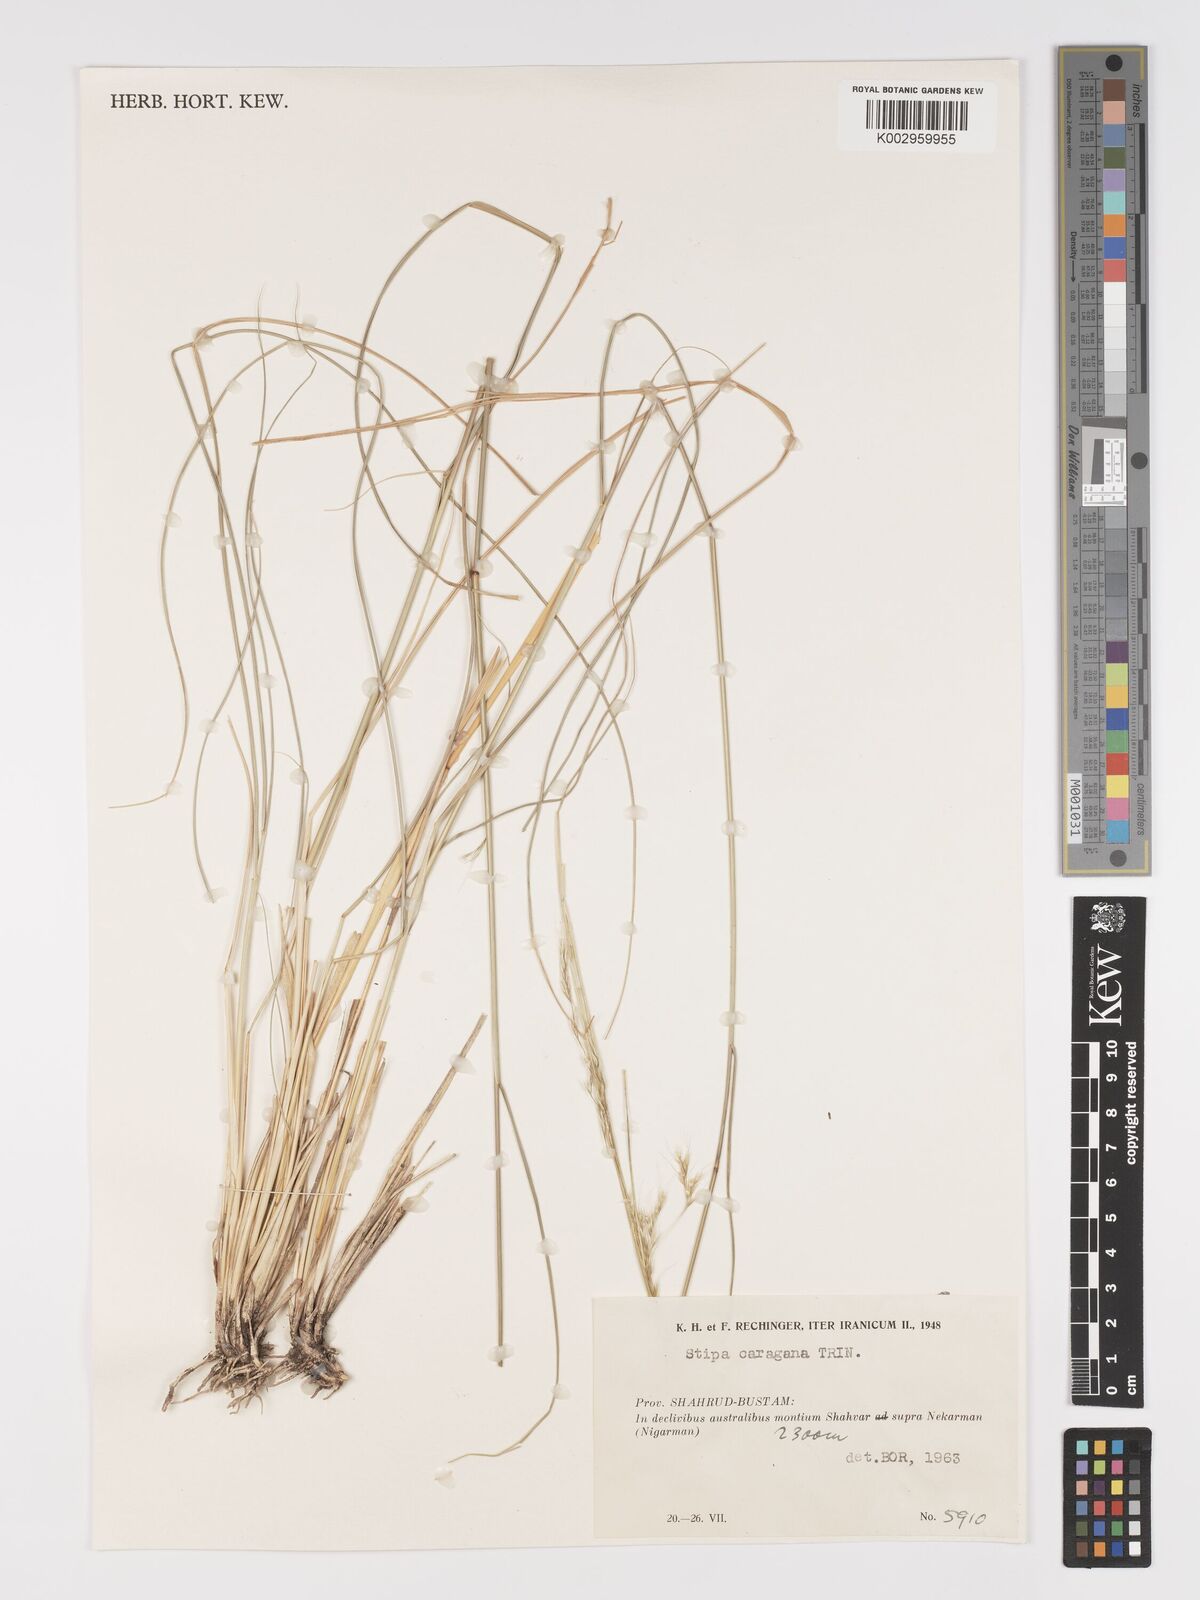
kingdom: Plantae
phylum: Tracheophyta
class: Liliopsida
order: Poales
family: Poaceae
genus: Stipa
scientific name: Stipa conferta
